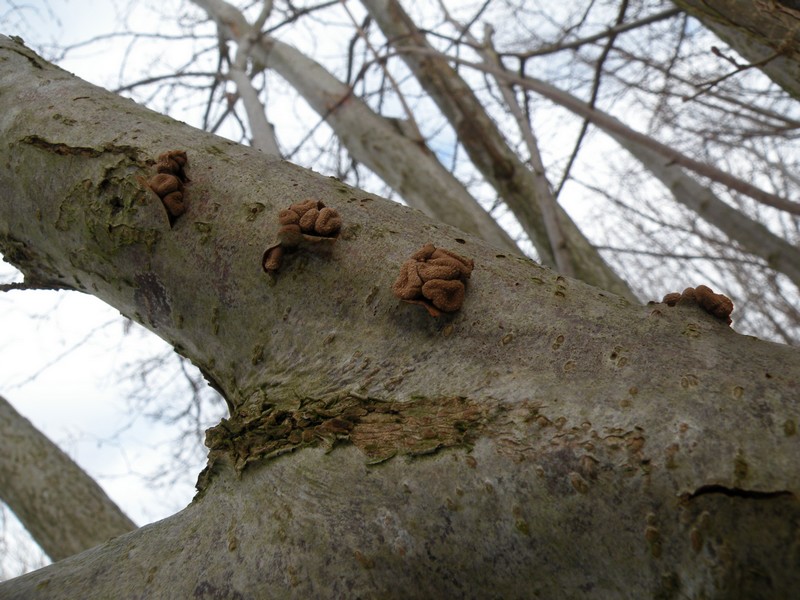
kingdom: Fungi
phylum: Ascomycota
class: Leotiomycetes
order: Helotiales
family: Cenangiaceae
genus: Encoelia
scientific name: Encoelia furfuracea
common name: hassel-læderskive
